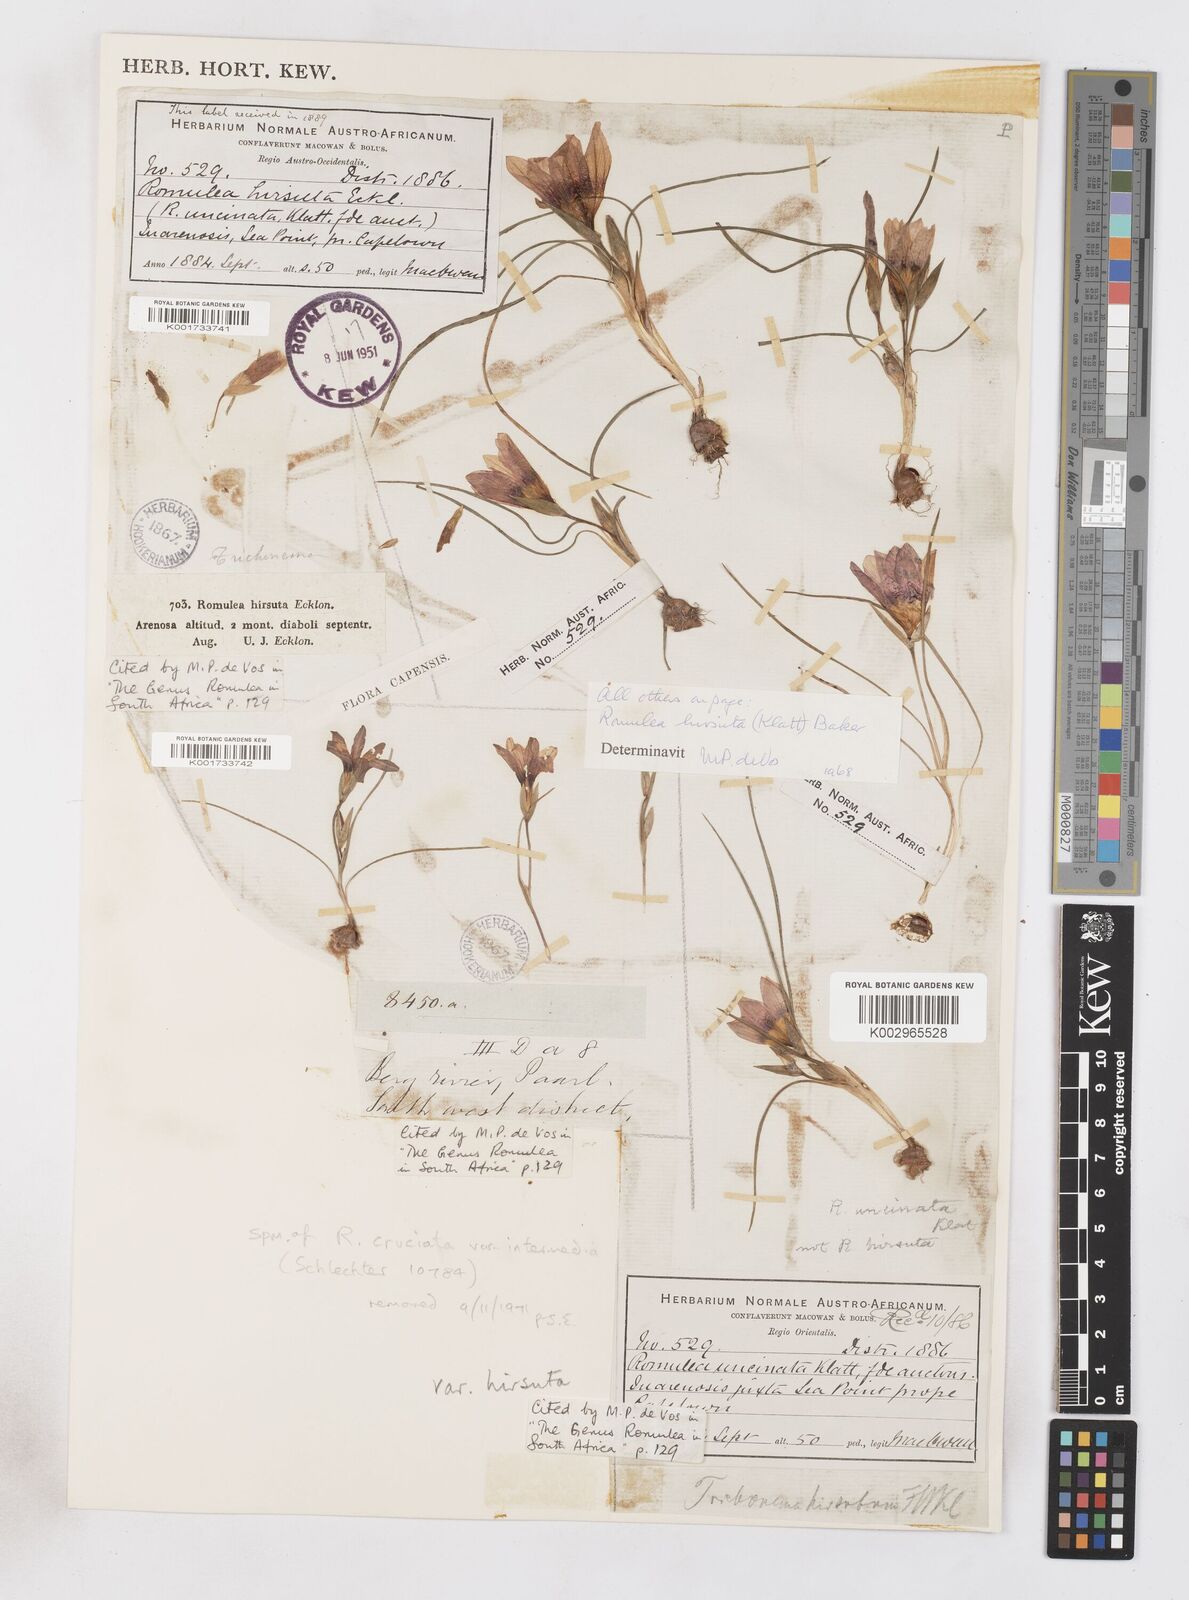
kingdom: Plantae
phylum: Tracheophyta
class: Liliopsida
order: Asparagales
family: Iridaceae
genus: Romulea
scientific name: Romulea hirsuta
